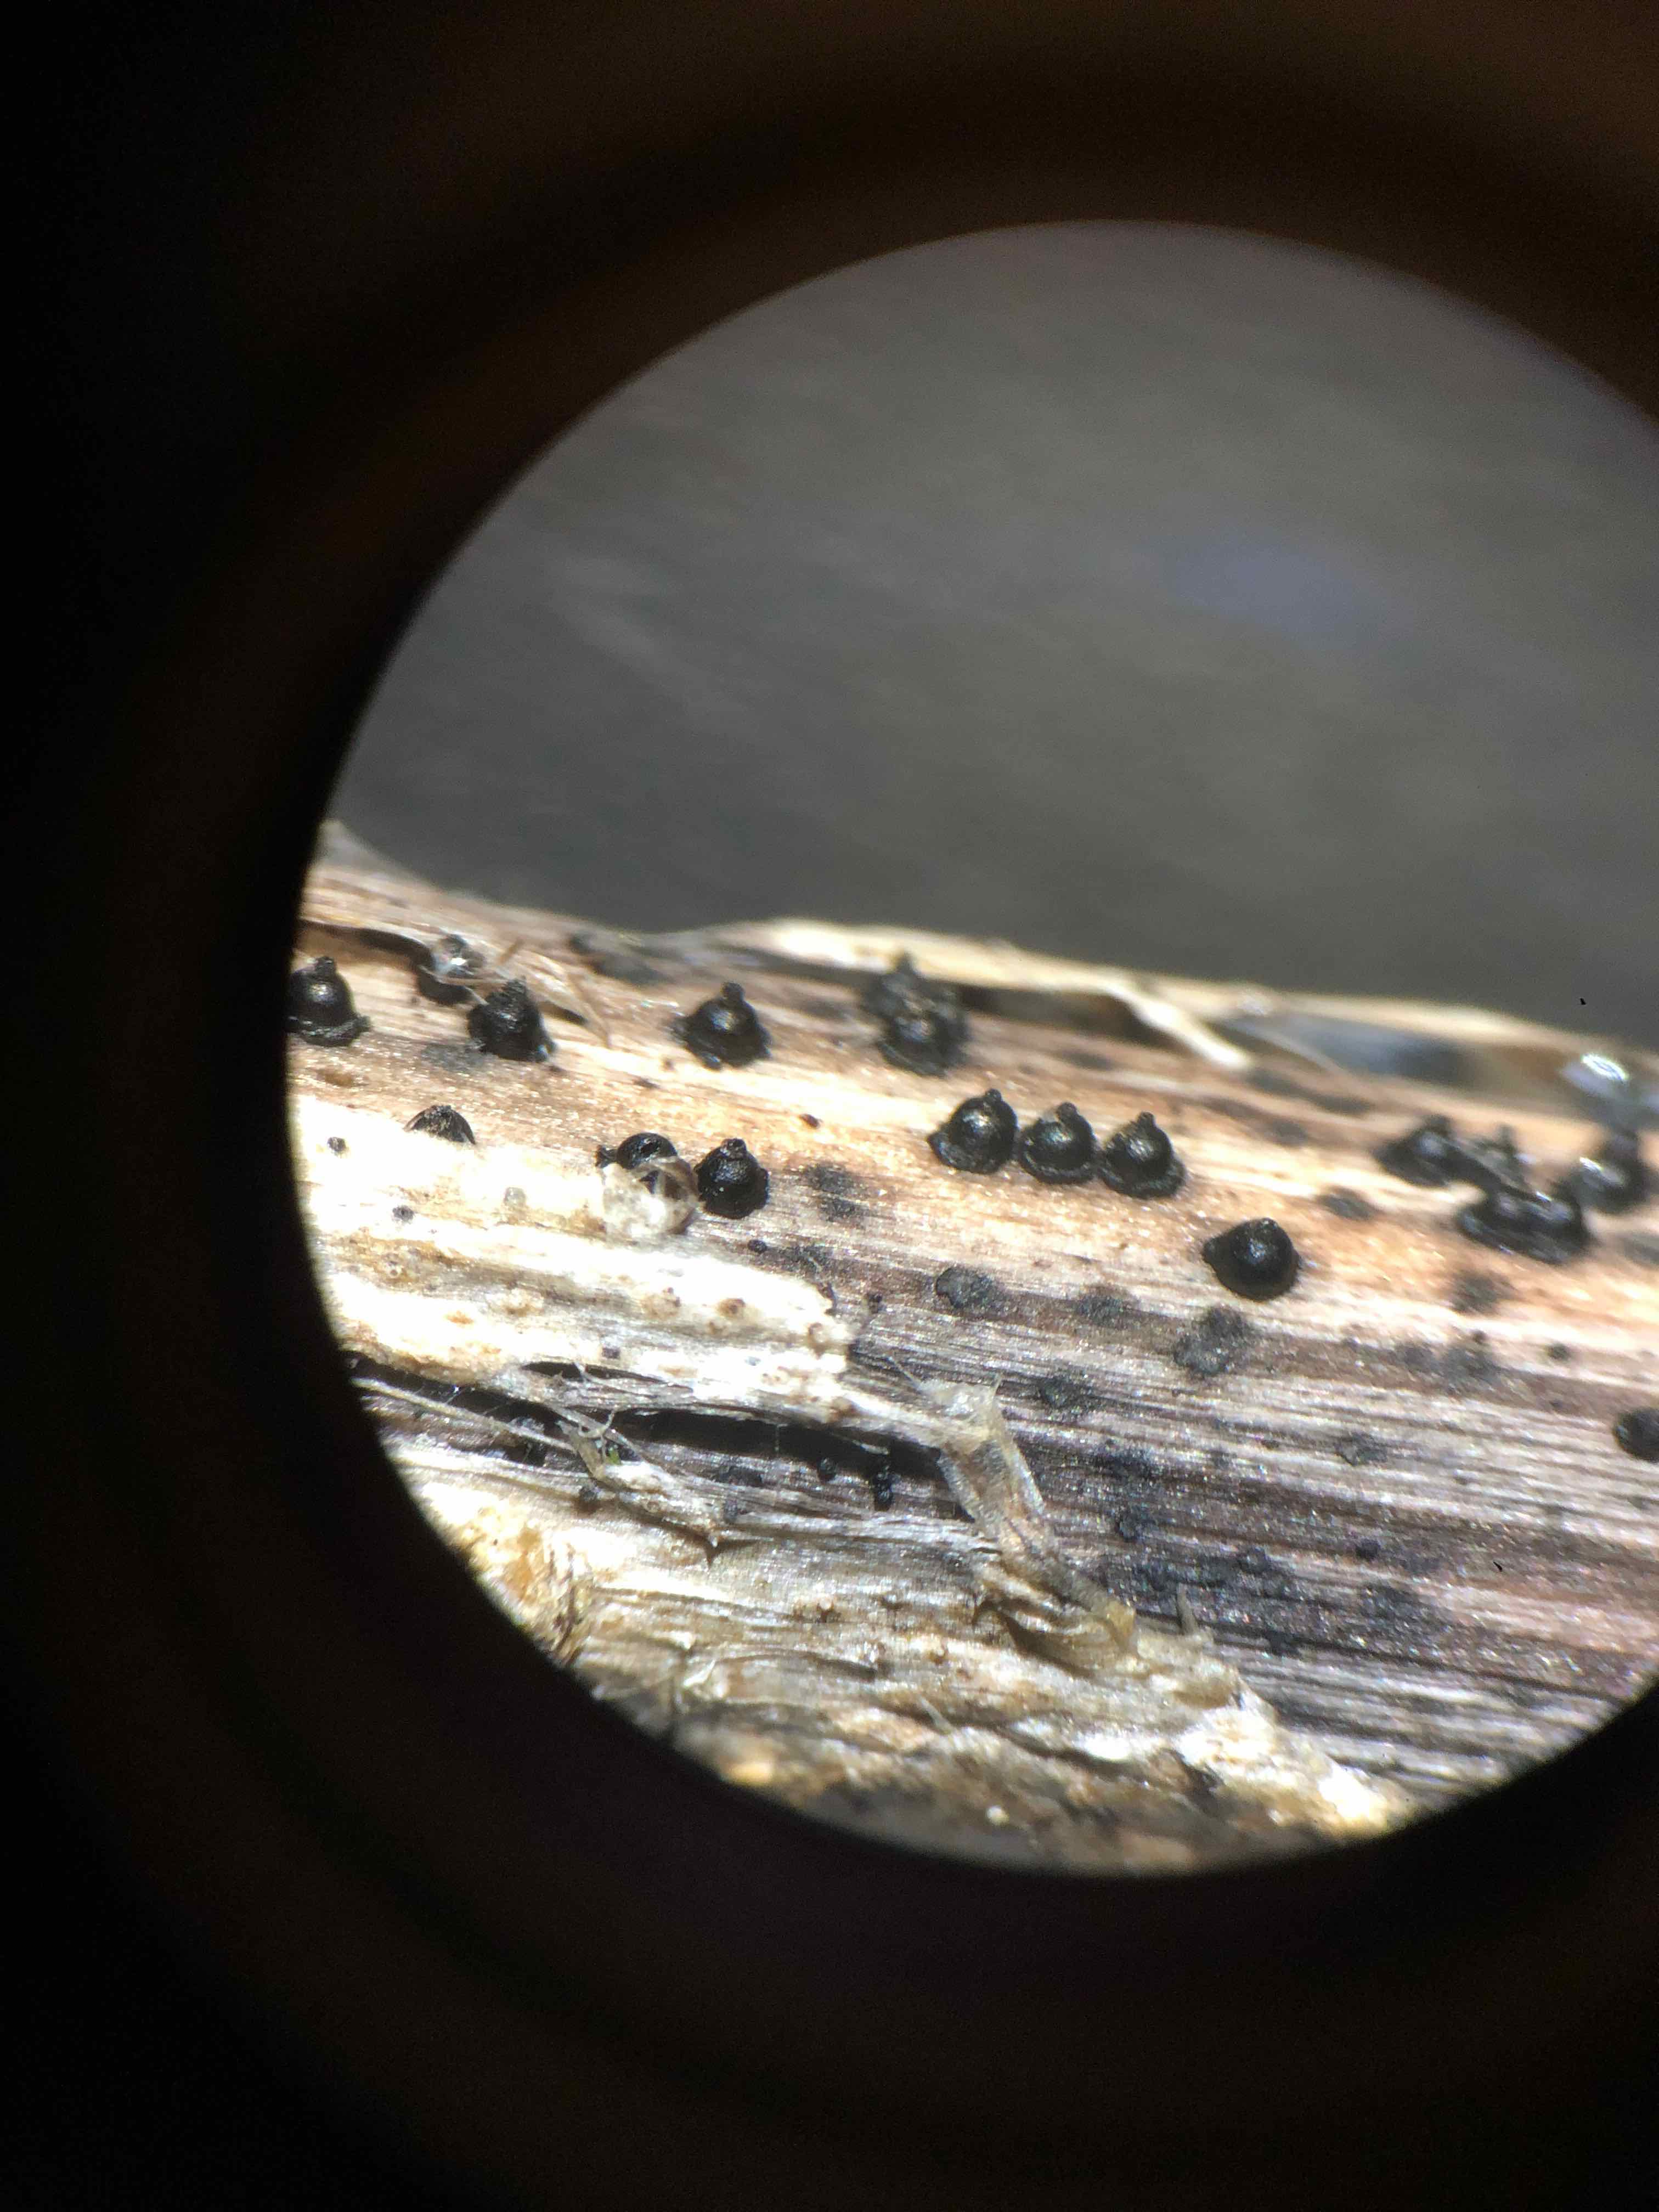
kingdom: Fungi
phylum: Ascomycota
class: Dothideomycetes
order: Pleosporales
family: Leptosphaeriaceae
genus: Leptosphaeria
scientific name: Leptosphaeria acuta
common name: spids kulkegle
